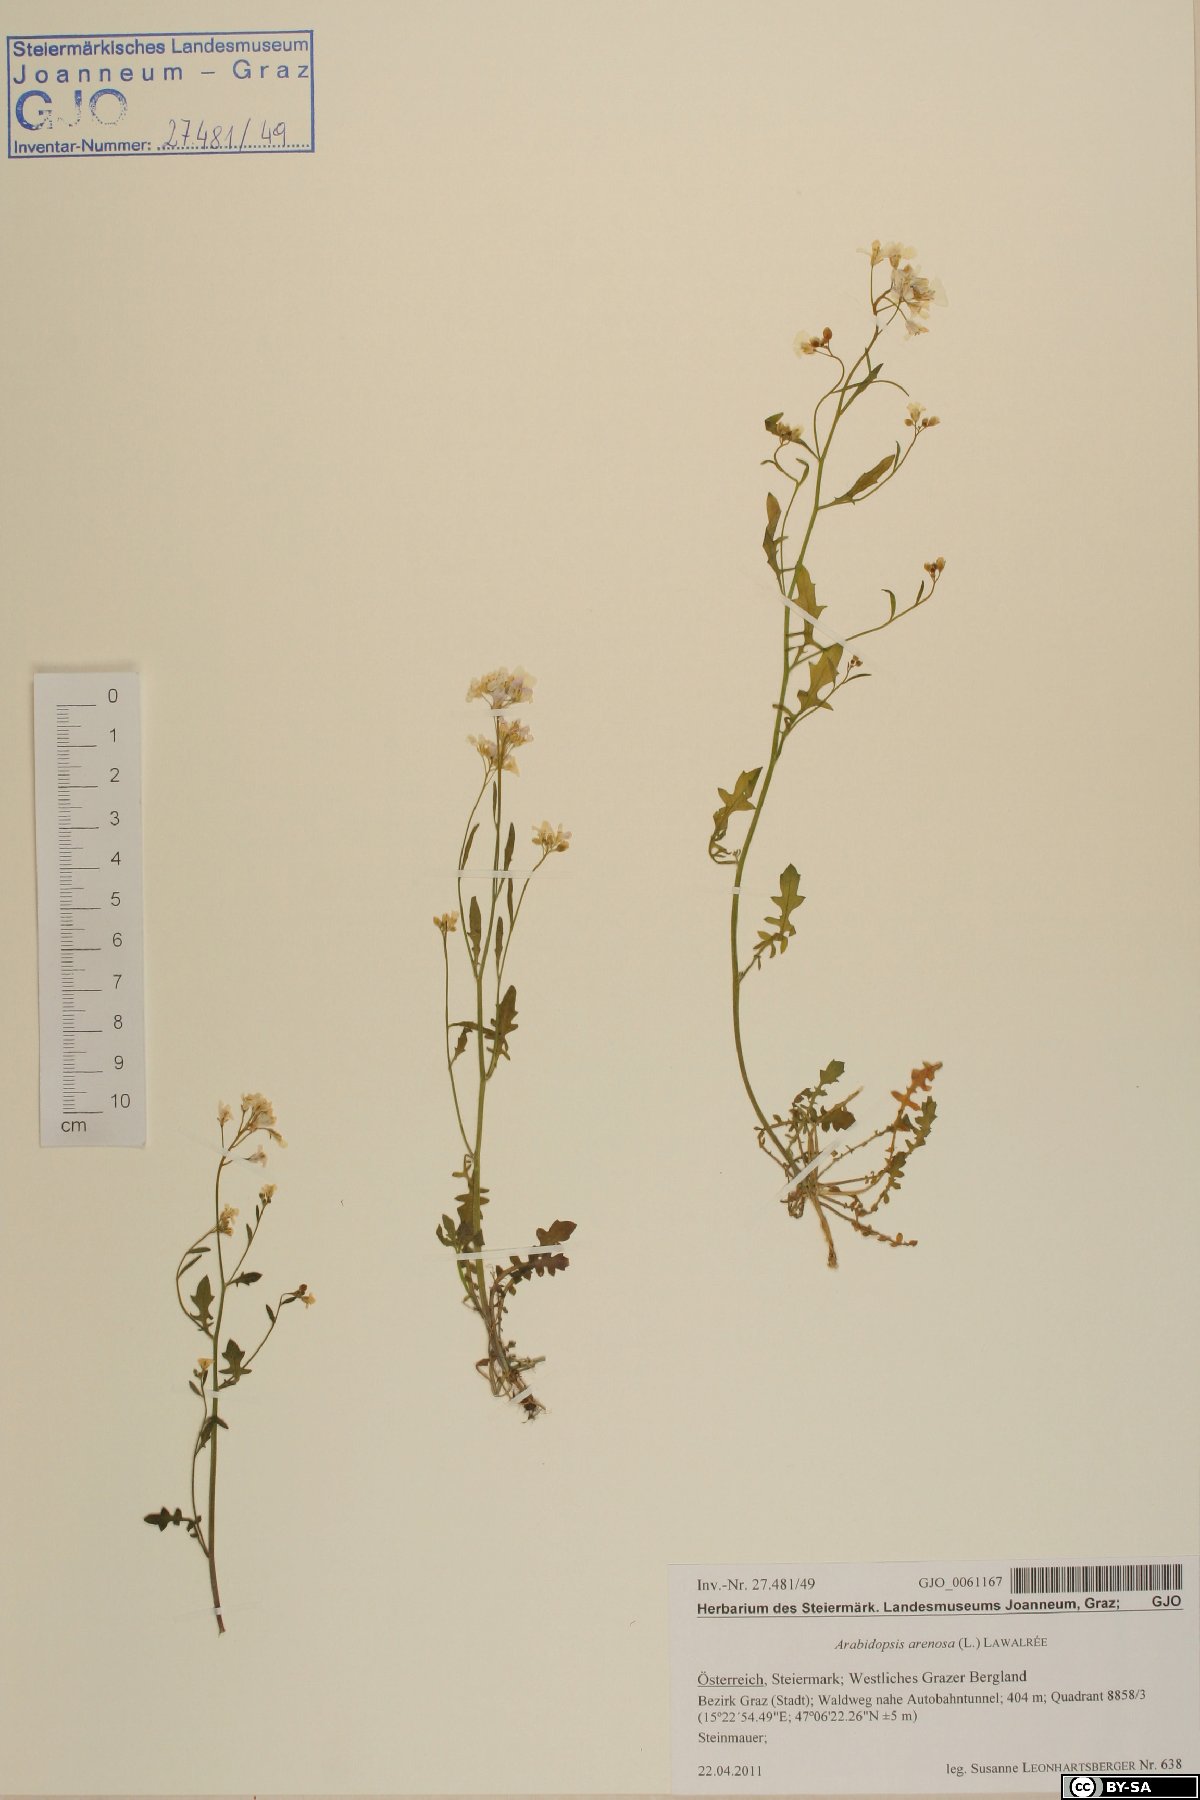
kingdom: Plantae
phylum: Tracheophyta
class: Magnoliopsida
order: Brassicales
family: Brassicaceae
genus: Arabidopsis
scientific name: Arabidopsis arenosa
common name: Sand rock-cress
